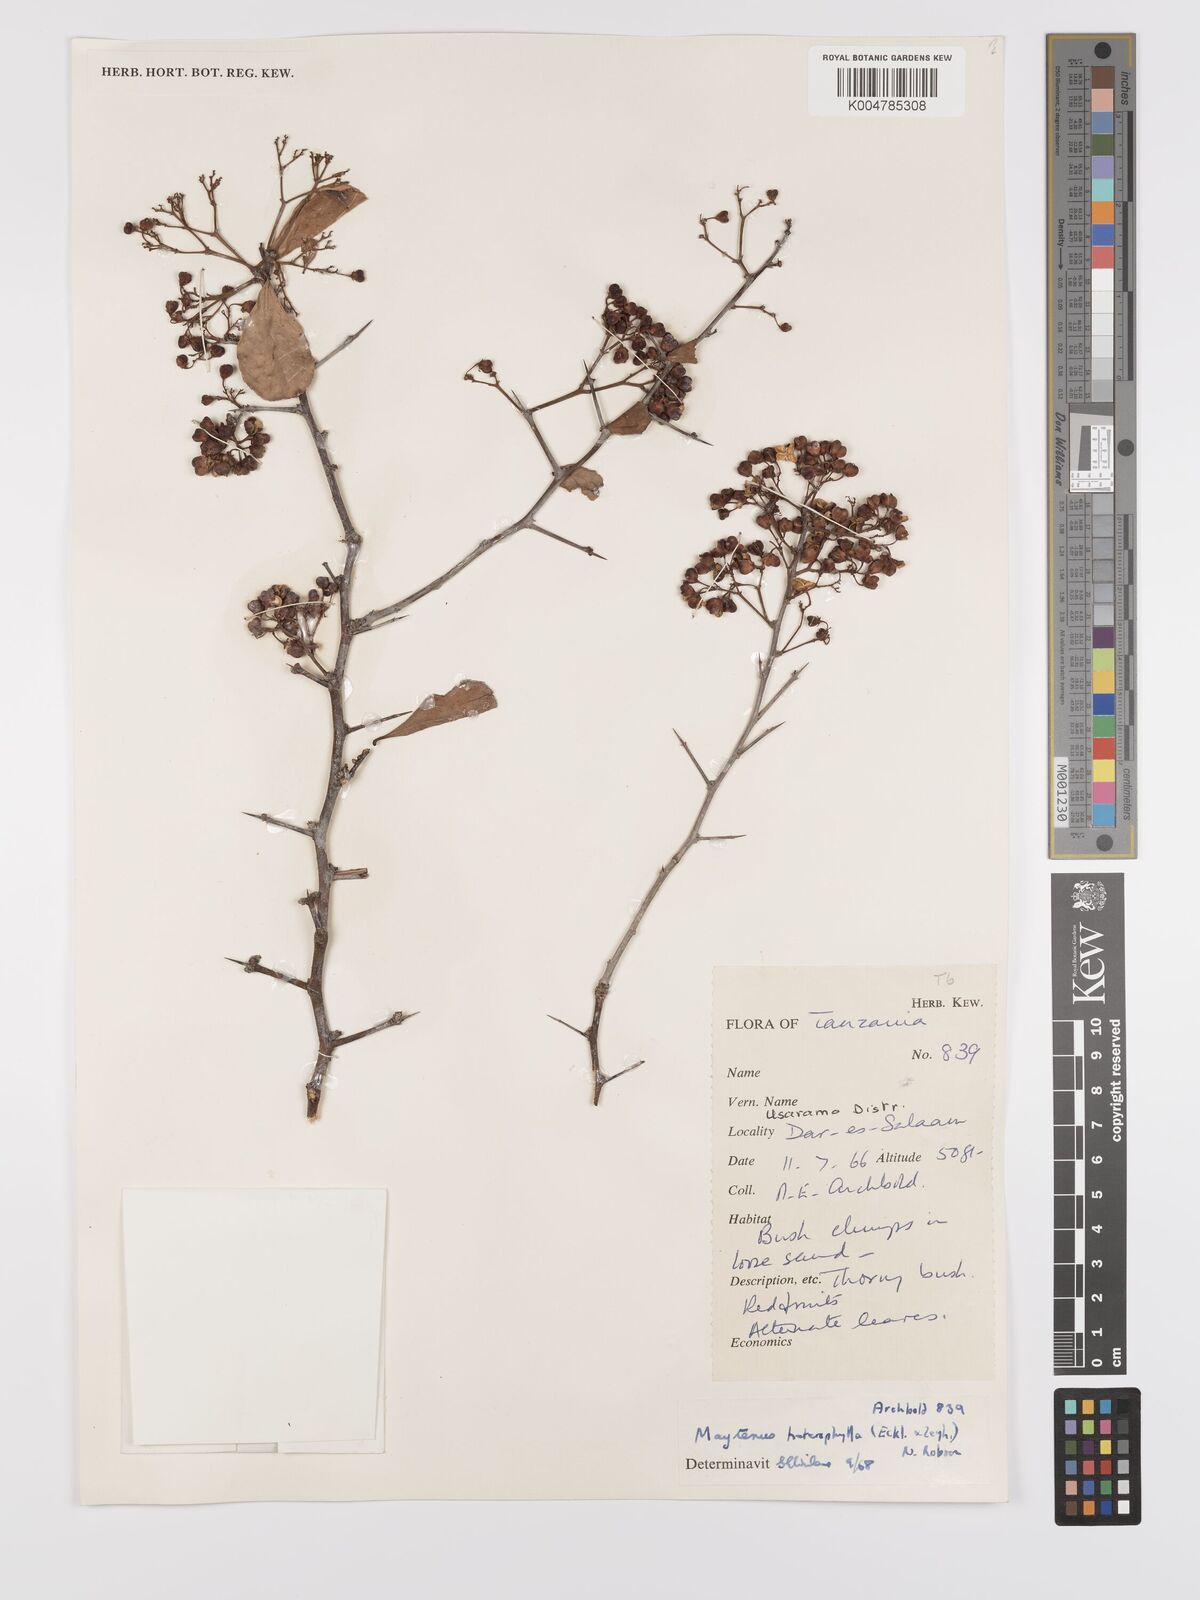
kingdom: Plantae
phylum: Tracheophyta
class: Magnoliopsida
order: Celastrales
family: Celastraceae
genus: Gymnosporia
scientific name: Gymnosporia heterophylla
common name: Angle-stem spikethorn
